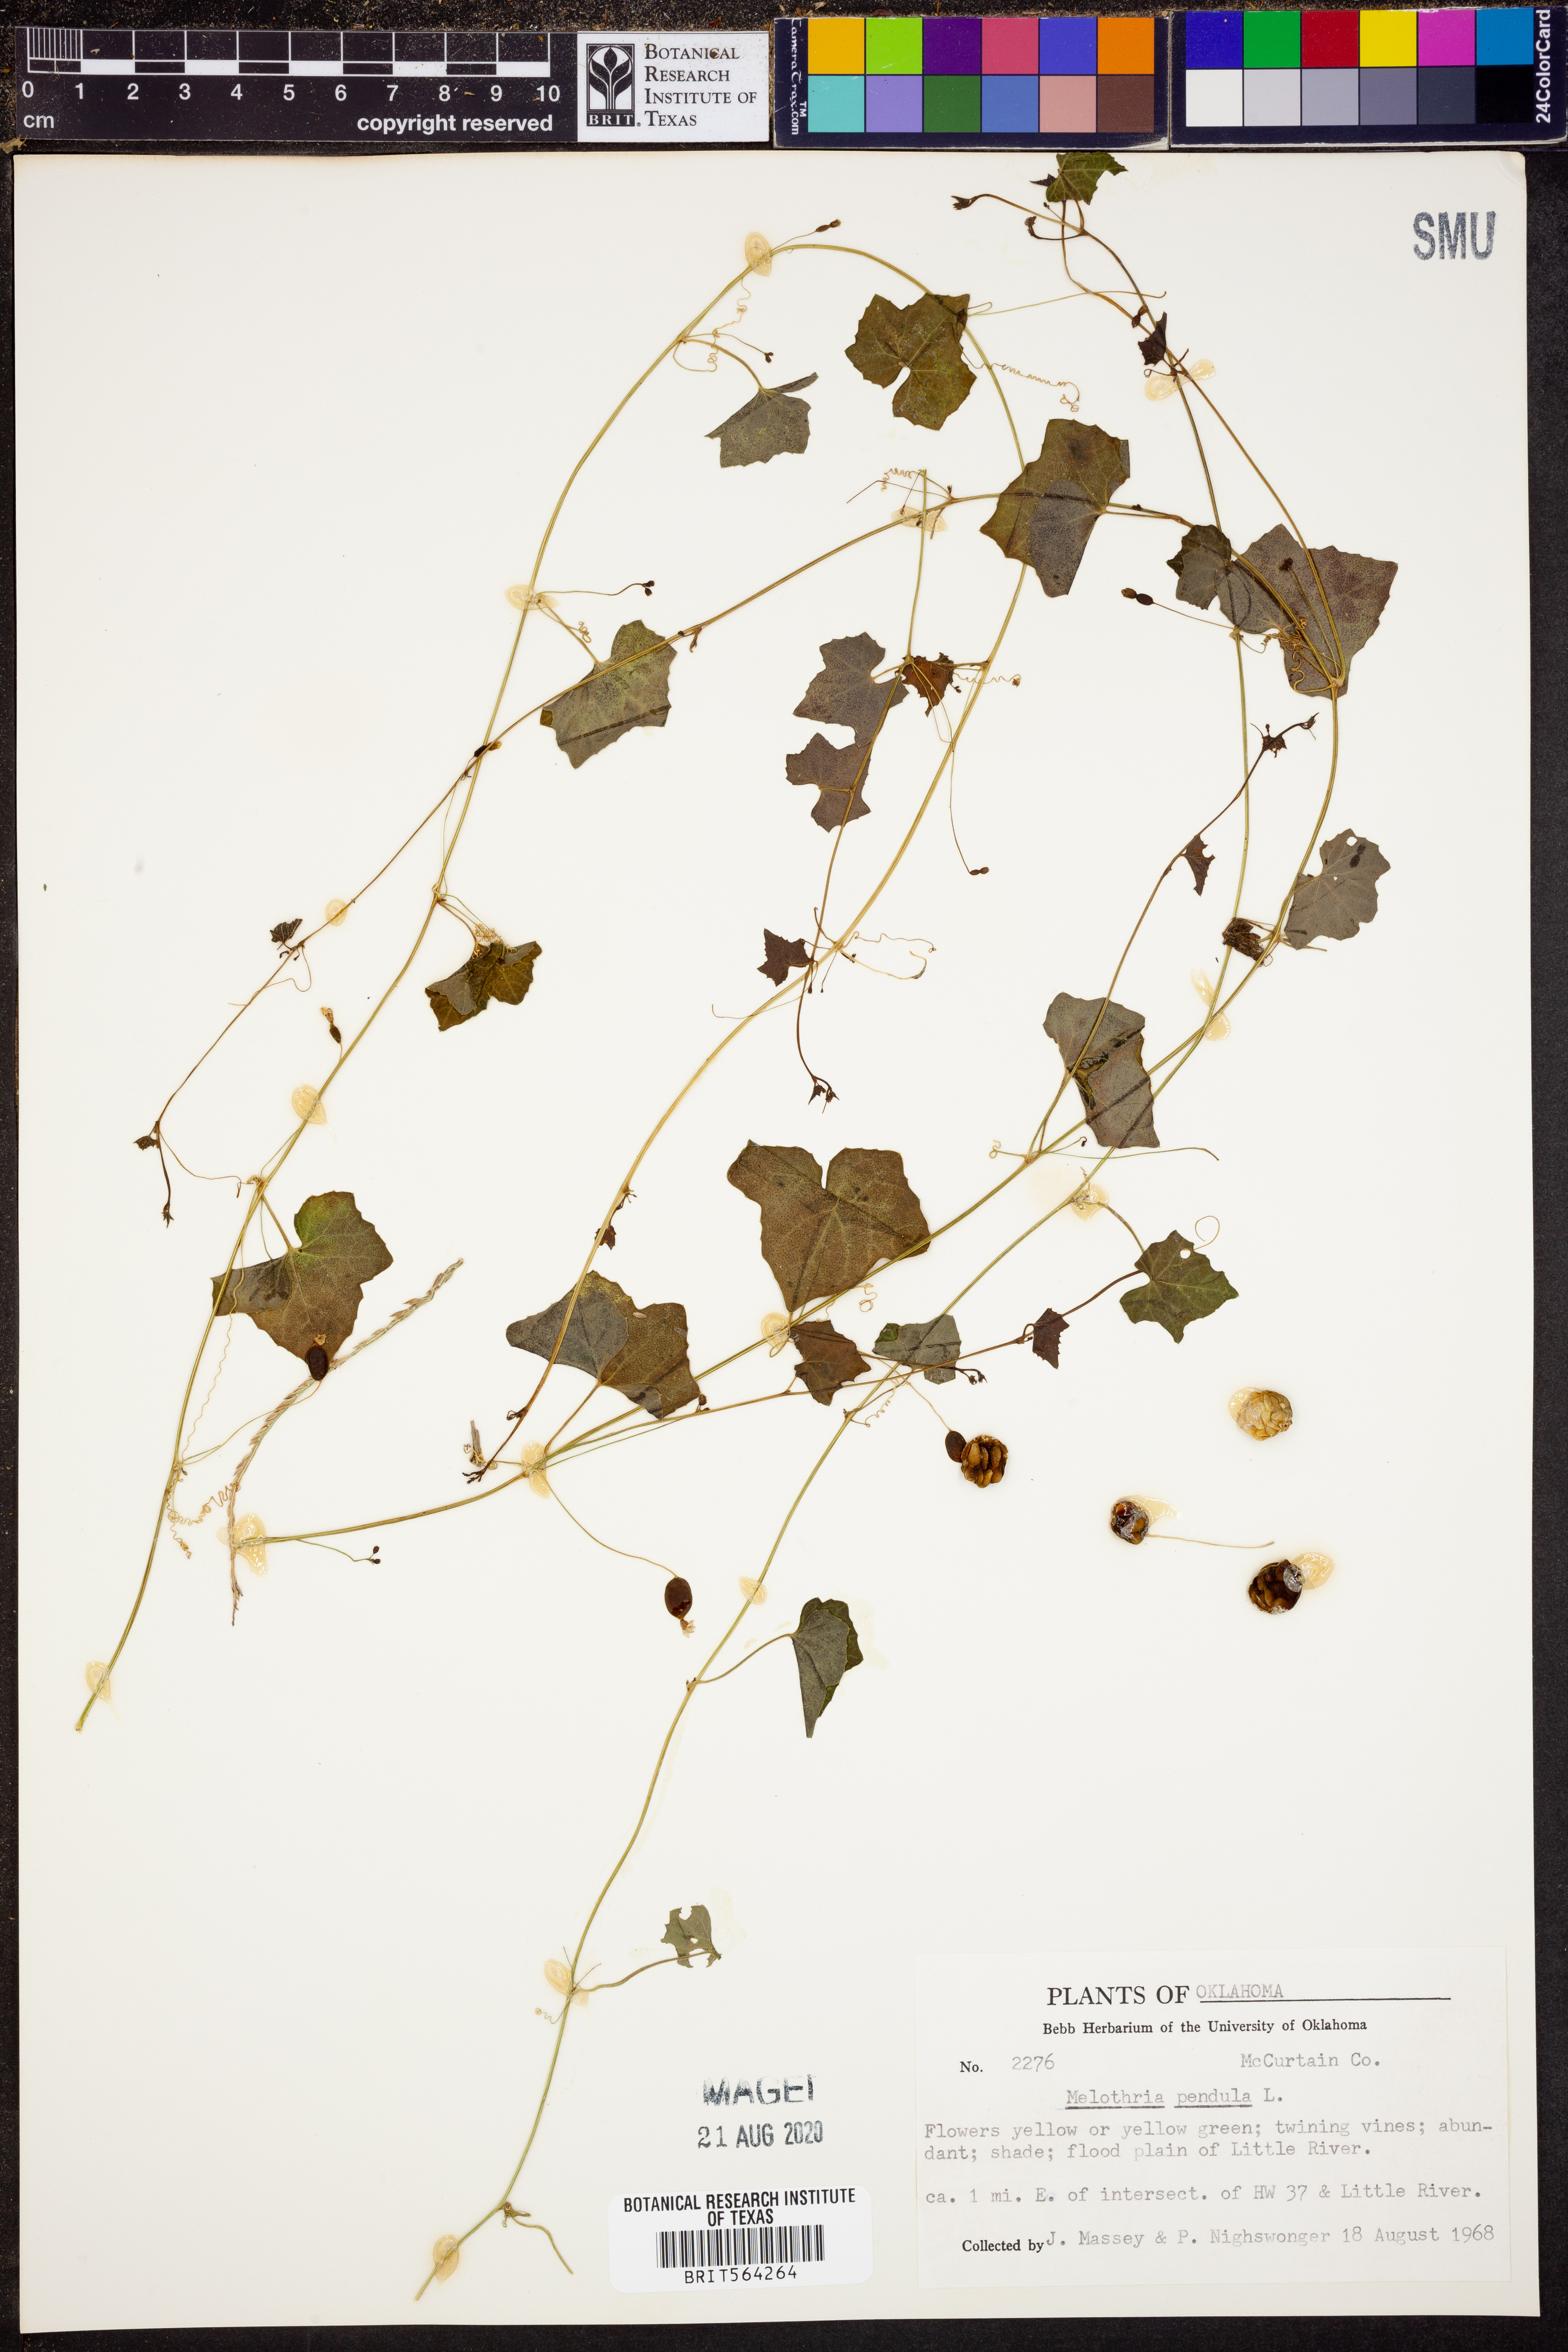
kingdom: Plantae
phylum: Tracheophyta
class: Magnoliopsida
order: Cucurbitales
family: Cucurbitaceae
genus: Melothria
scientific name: Melothria pendula
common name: Creeping-cucumber
